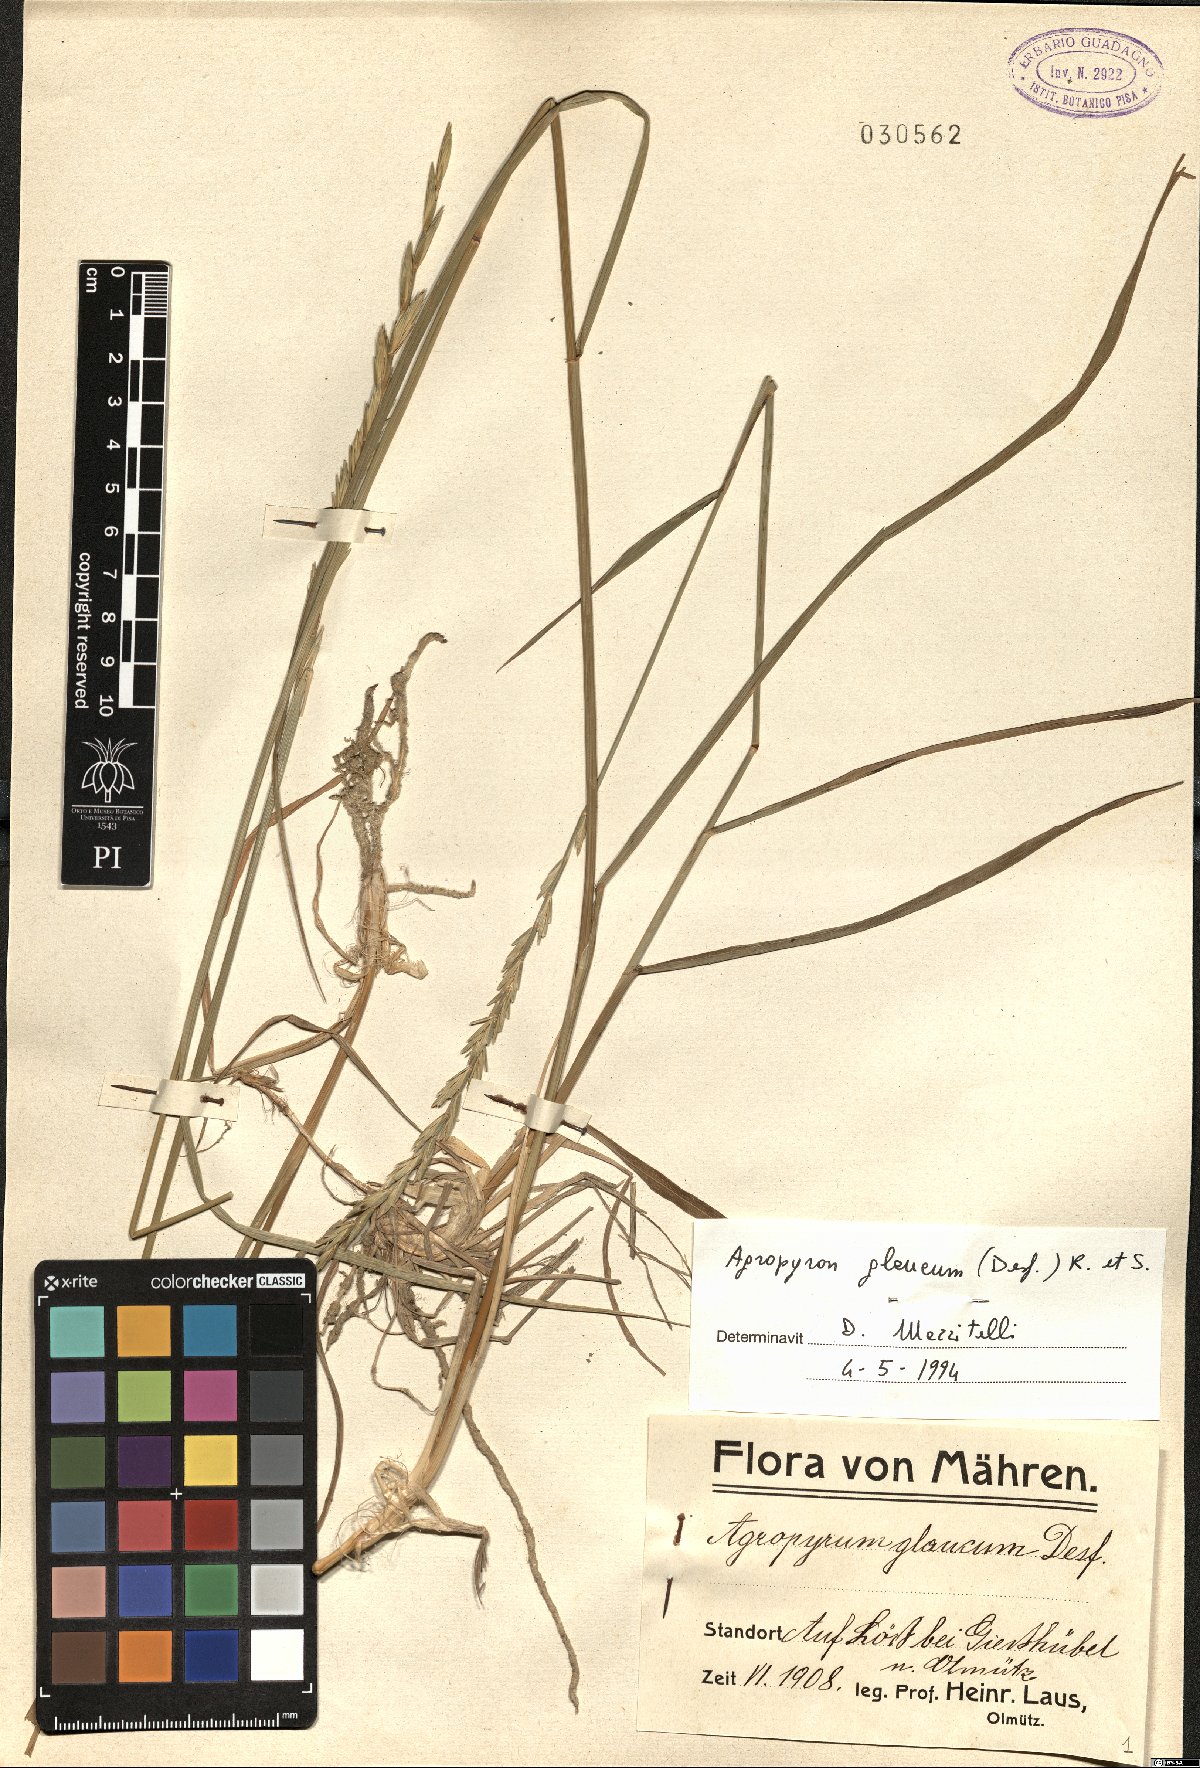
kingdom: Plantae
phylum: Tracheophyta
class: Liliopsida
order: Poales
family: Poaceae
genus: Thinopyrum
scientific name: Thinopyrum intermedium
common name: Intermediate wheatgrass
